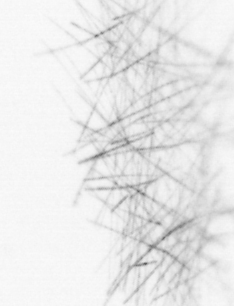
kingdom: Bacteria
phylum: Cyanobacteria
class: Cyanobacteriia
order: Cyanobacteriales
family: Microcoleaceae
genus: Trichodesmium
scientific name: Trichodesmium
